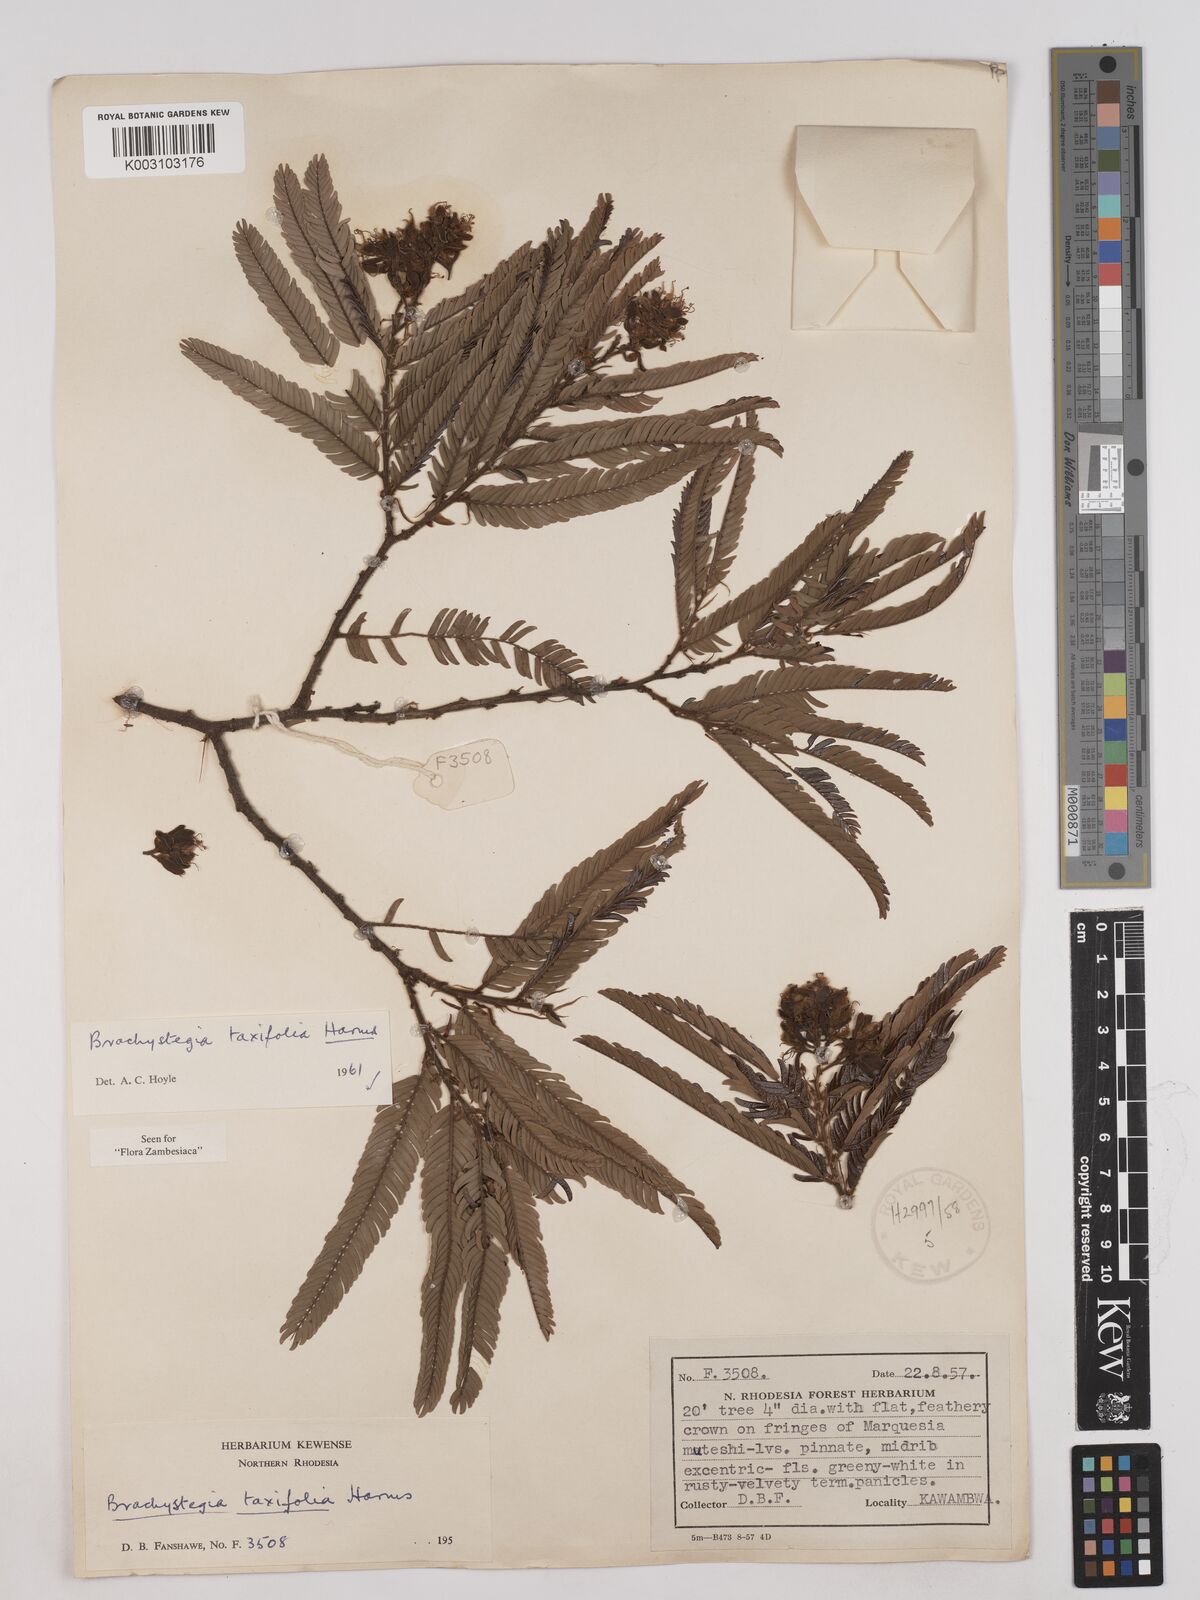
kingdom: Plantae
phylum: Tracheophyta
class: Magnoliopsida
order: Fabales
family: Fabaceae
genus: Brachystegia
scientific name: Brachystegia taxifolia
